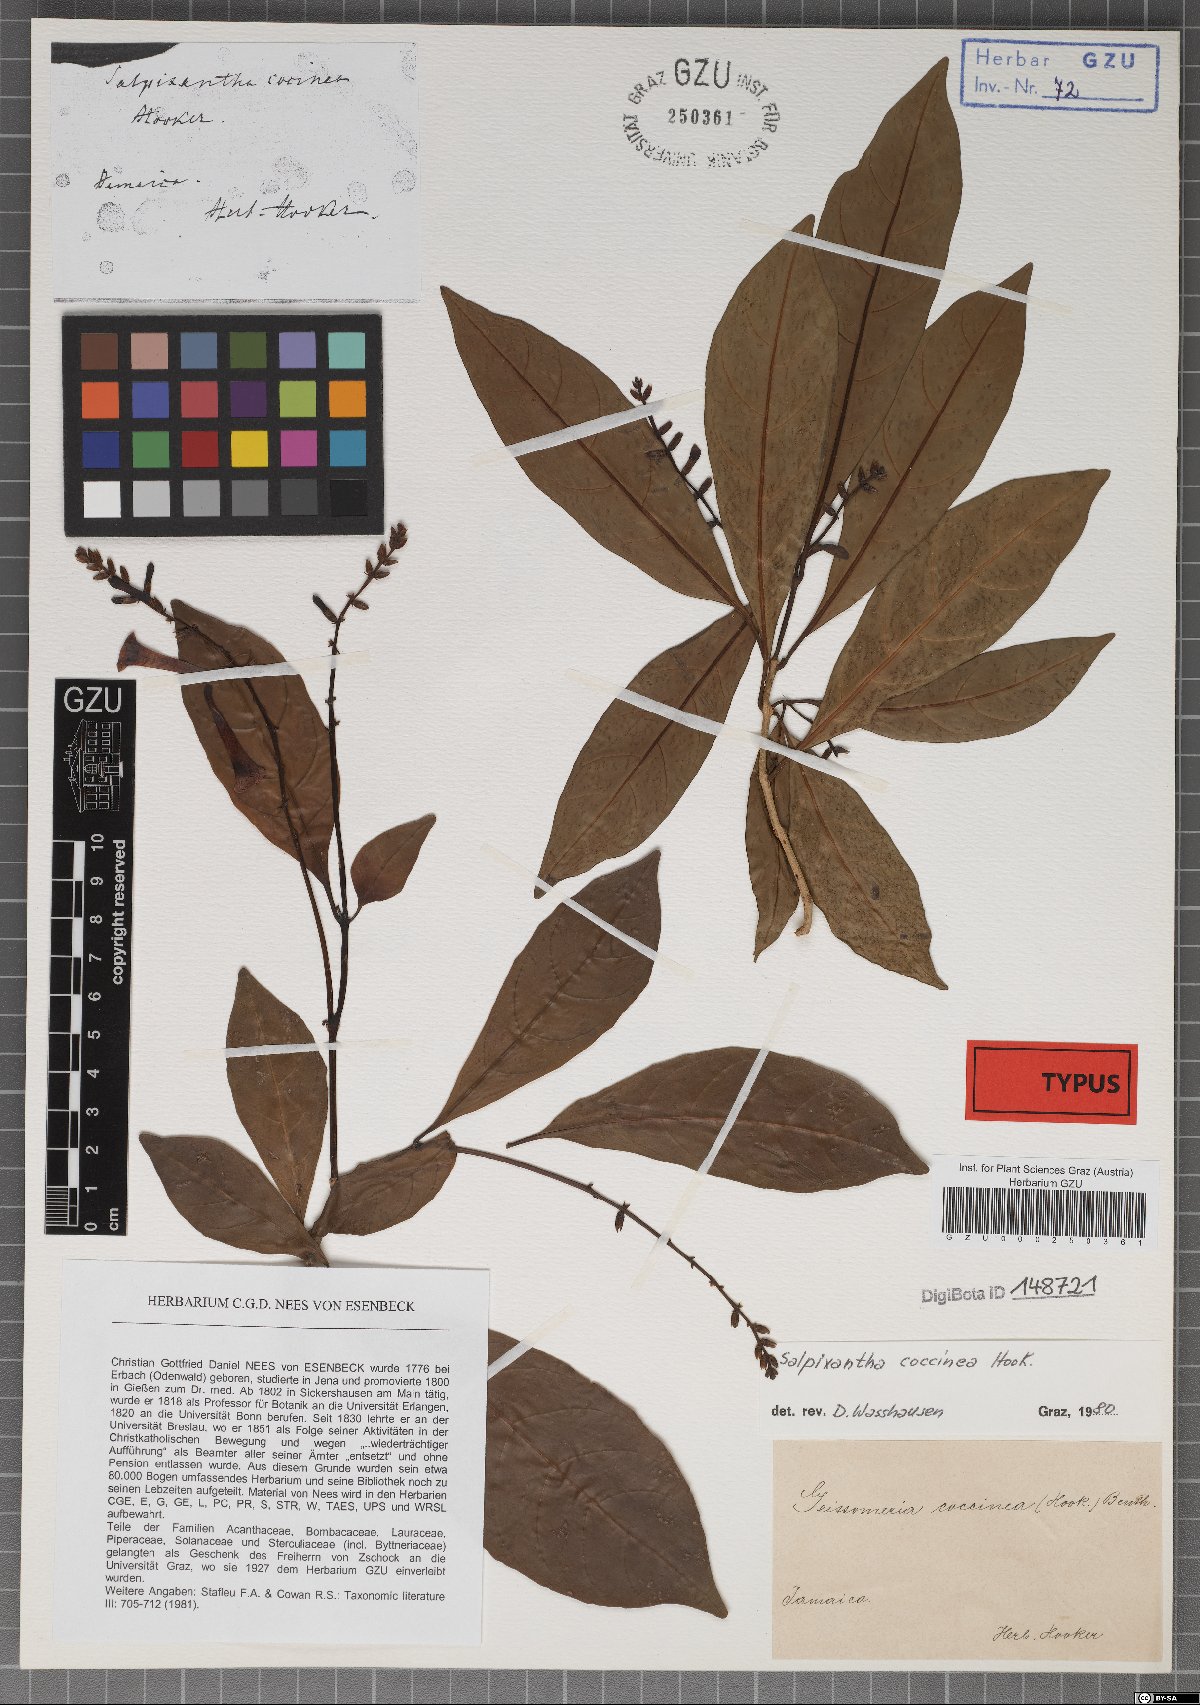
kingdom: Plantae
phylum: Tracheophyta
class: Magnoliopsida
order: Lamiales
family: Acanthaceae
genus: Salpixantha
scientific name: Salpixantha coccinea
